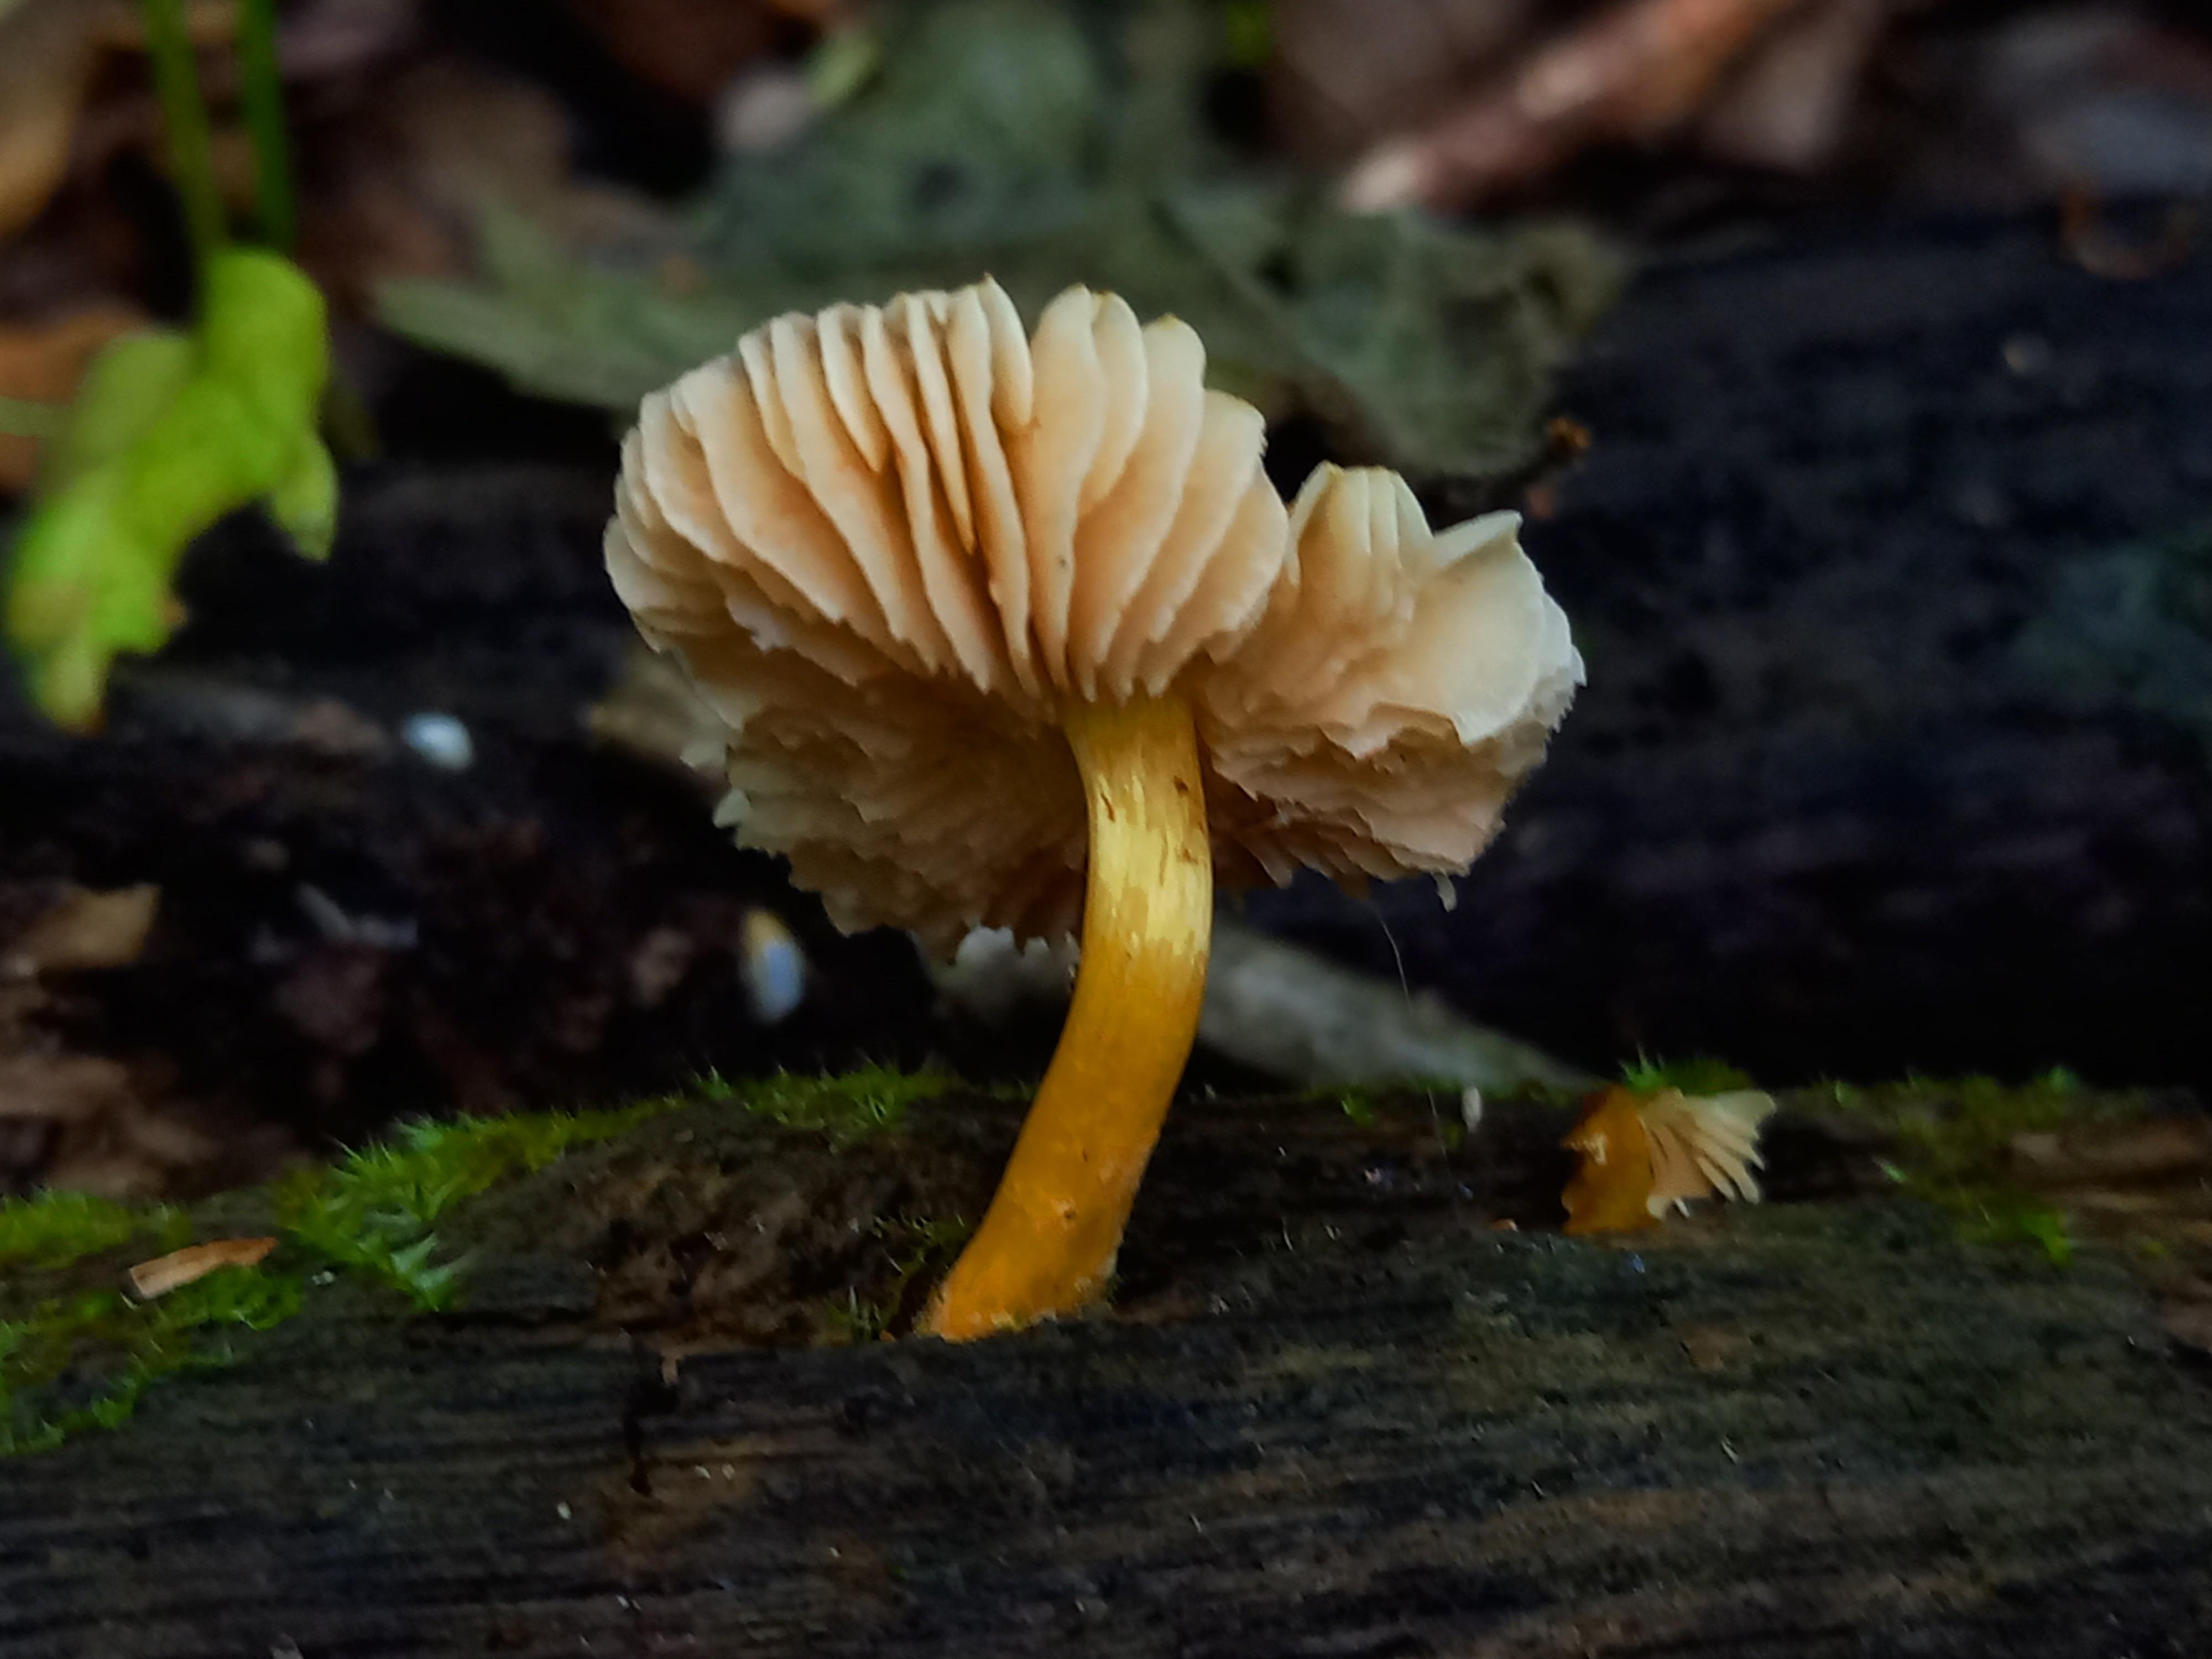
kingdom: Fungi
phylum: Basidiomycota
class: Agaricomycetes
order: Agaricales
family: Pluteaceae
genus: Pluteus
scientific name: Pluteus romellii
